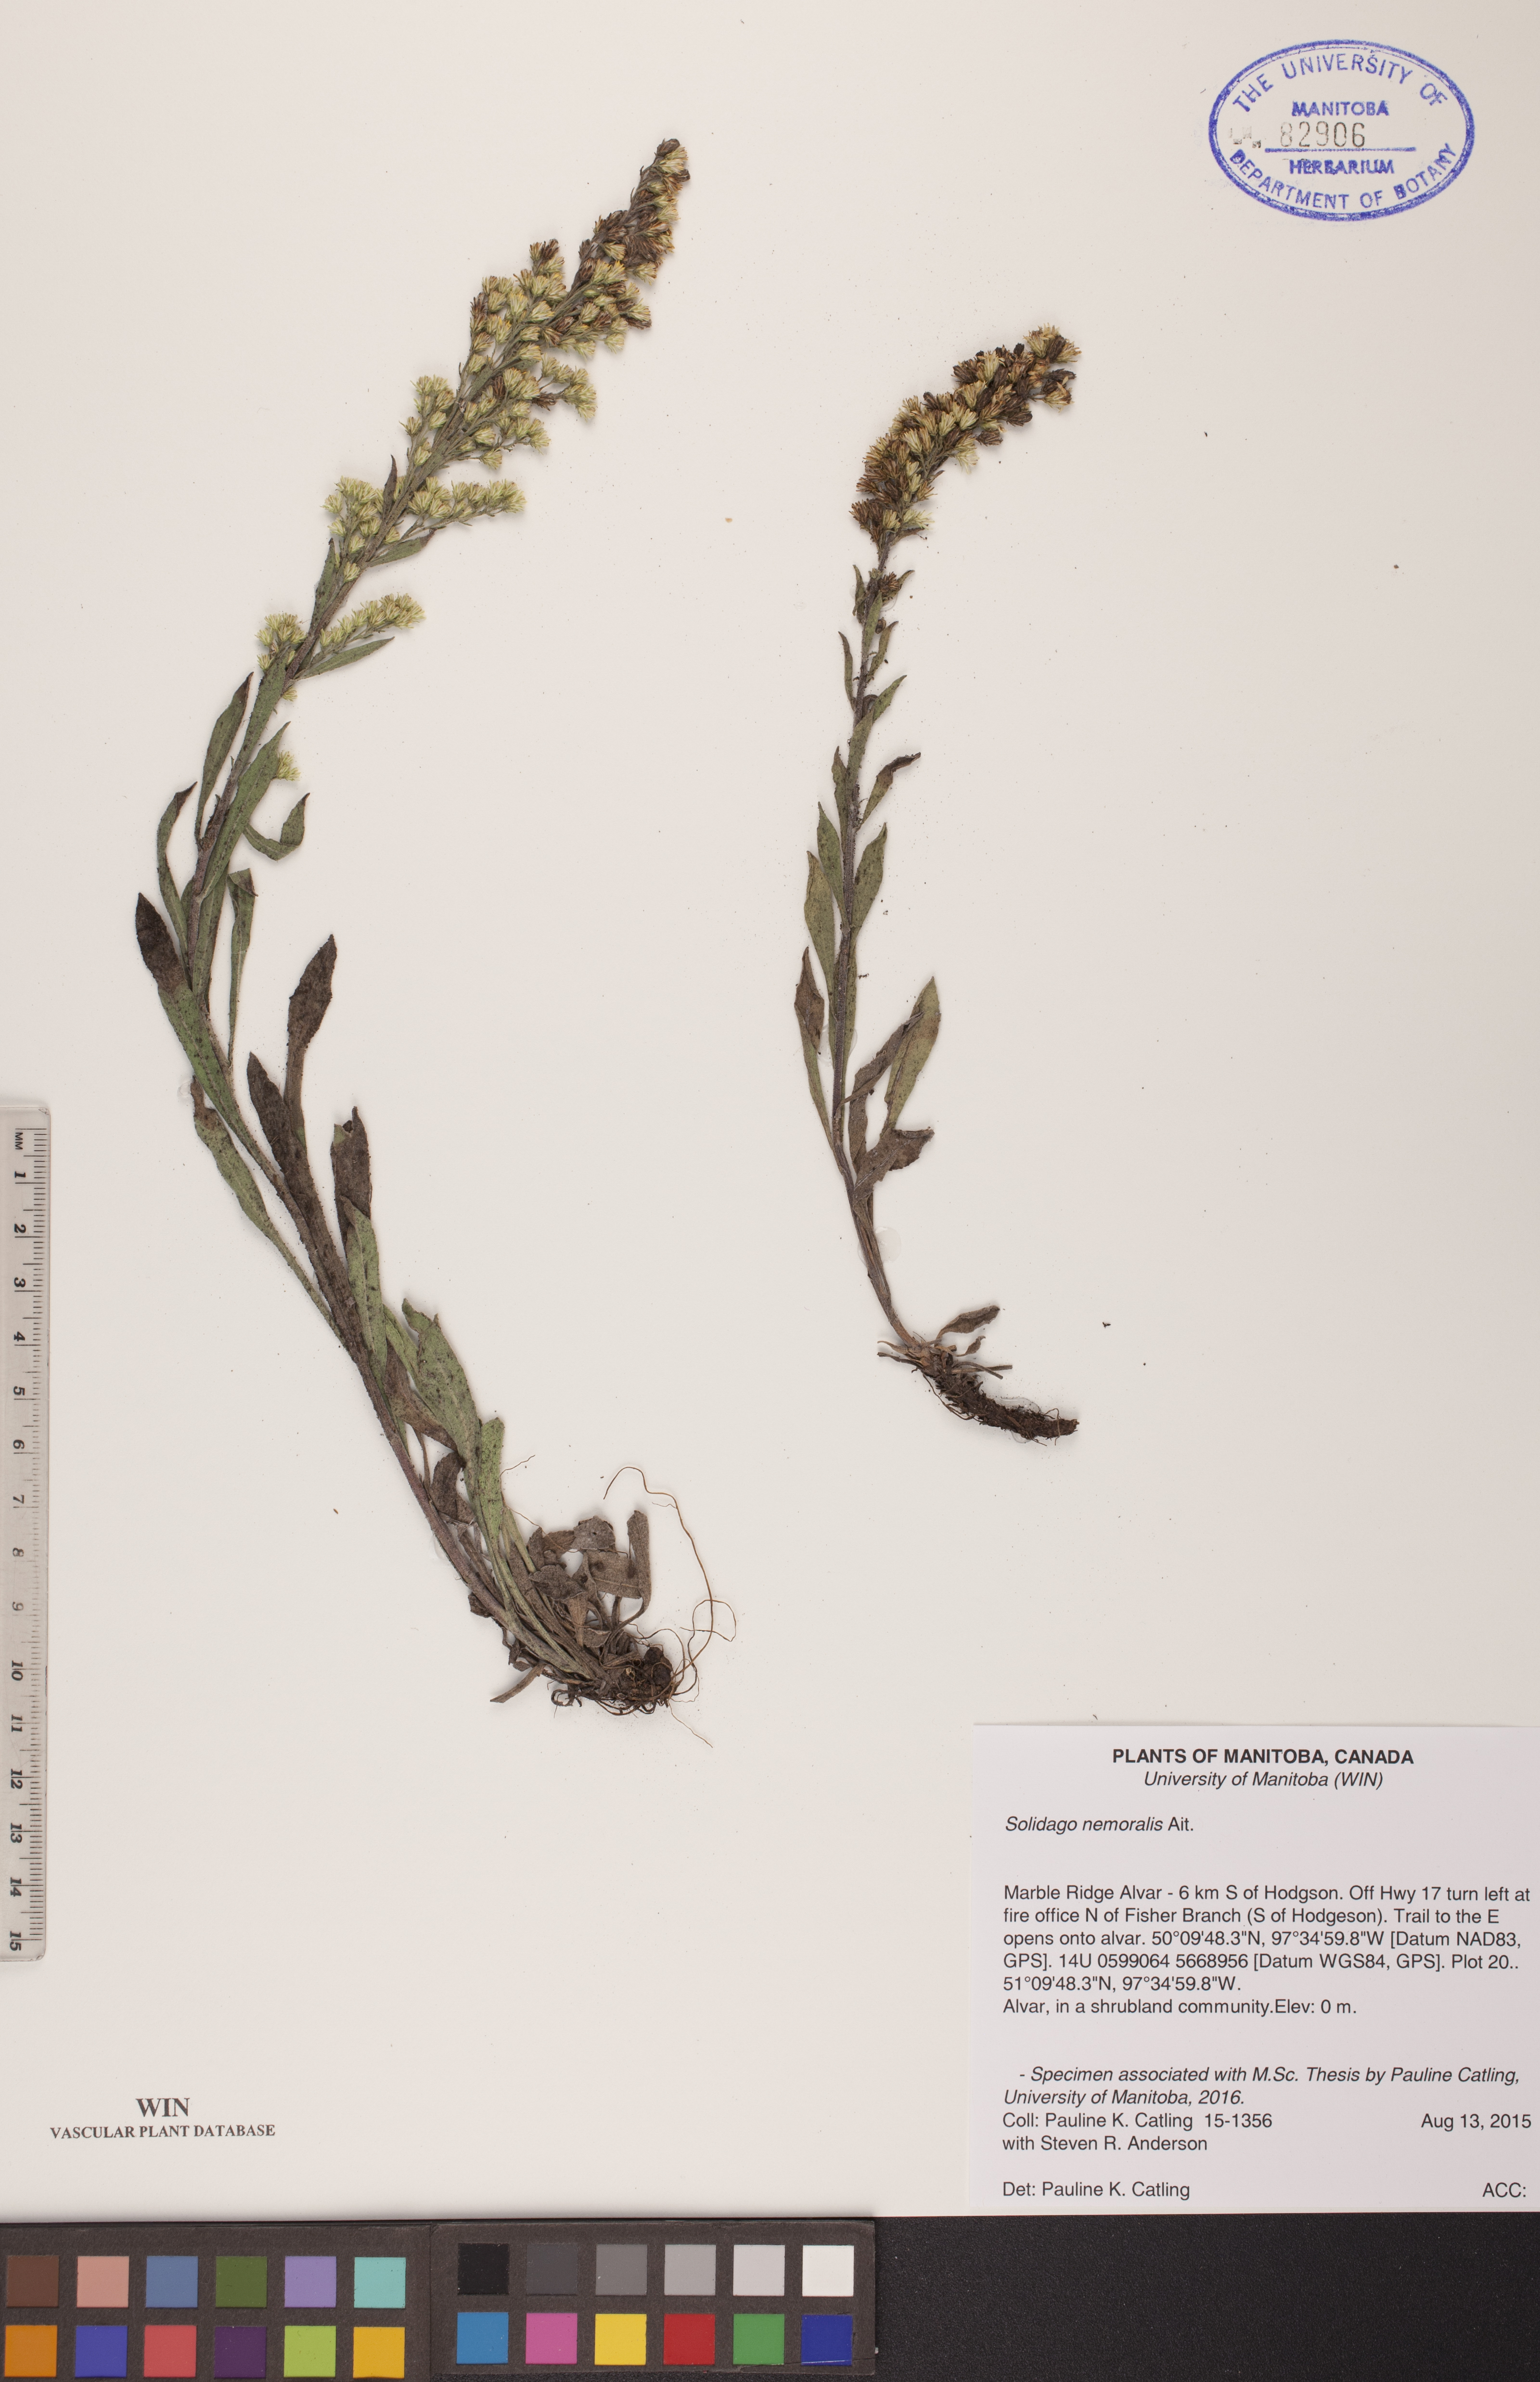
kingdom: Plantae
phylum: Tracheophyta
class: Magnoliopsida
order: Asterales
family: Asteraceae
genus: Solidago
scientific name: Solidago nemoralis
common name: Grey goldenrod
